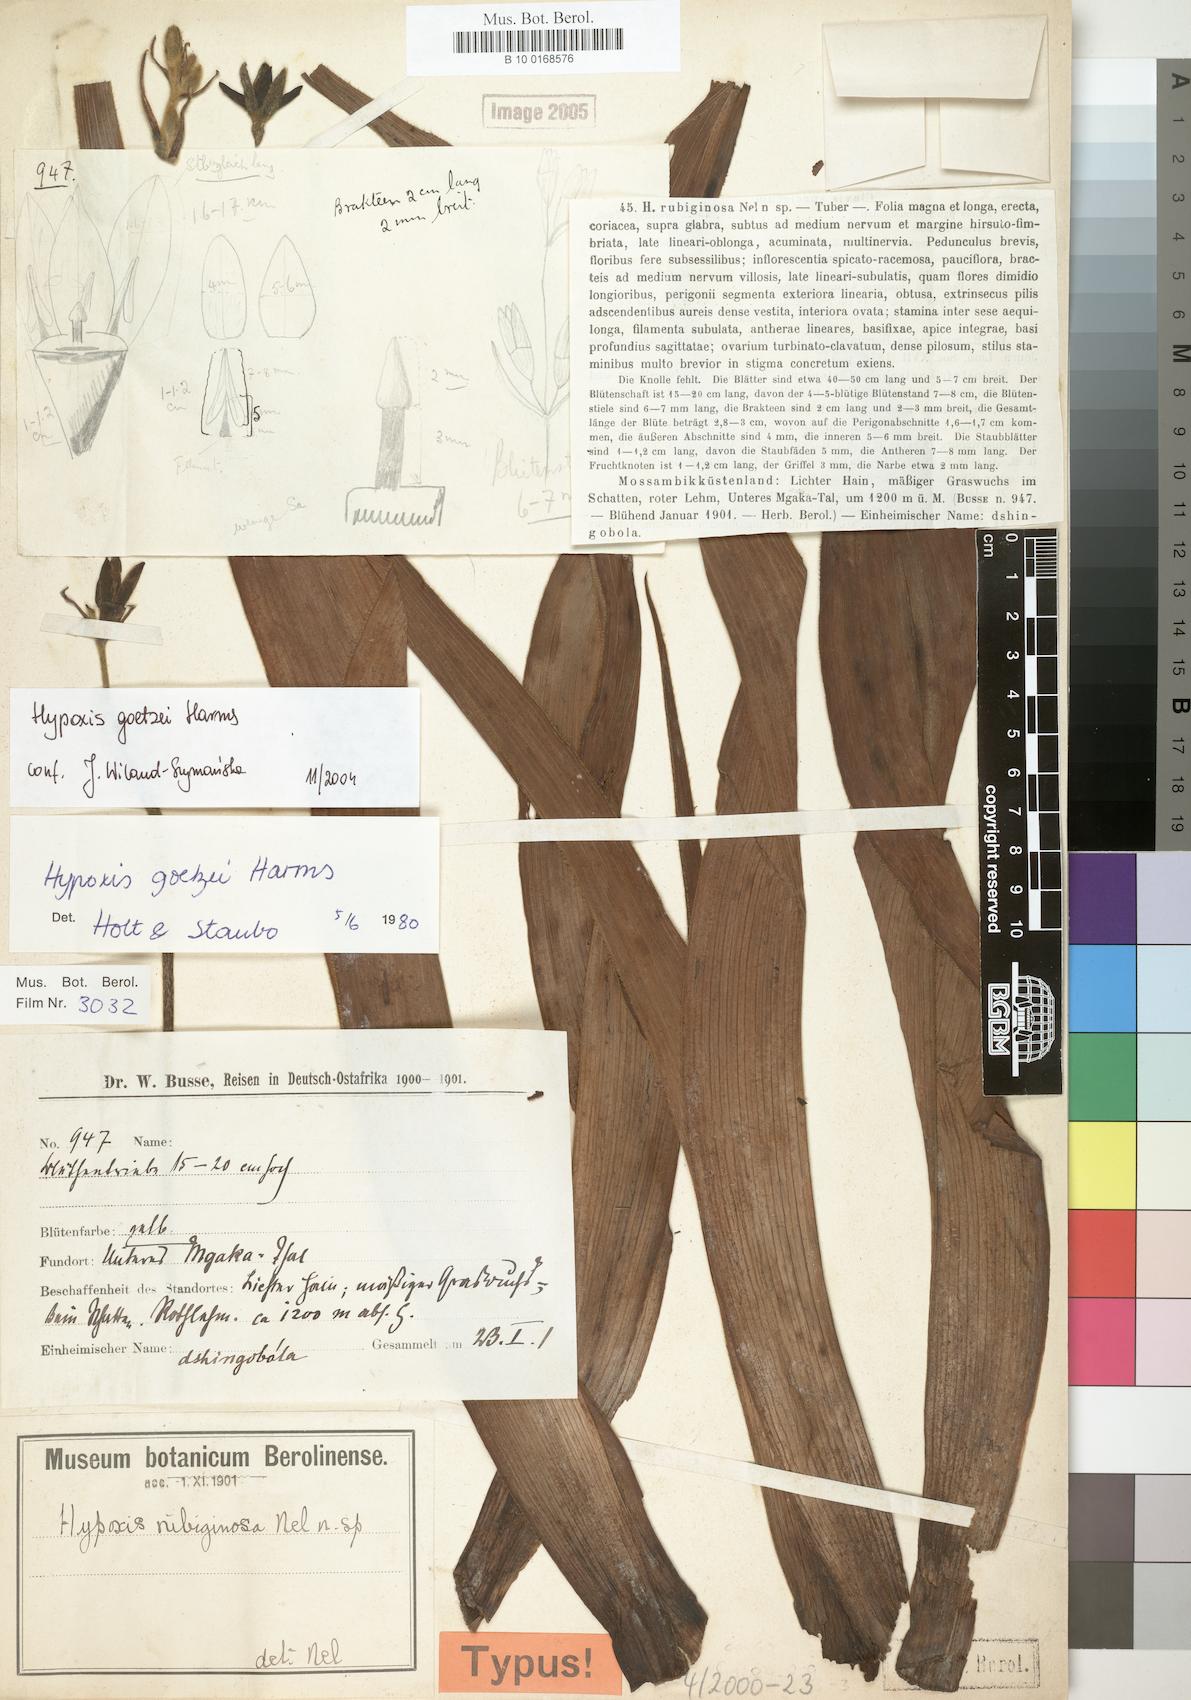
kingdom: Plantae
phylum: Tracheophyta
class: Liliopsida
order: Asparagales
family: Hypoxidaceae
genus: Hypoxis
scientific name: Hypoxis goetzei
